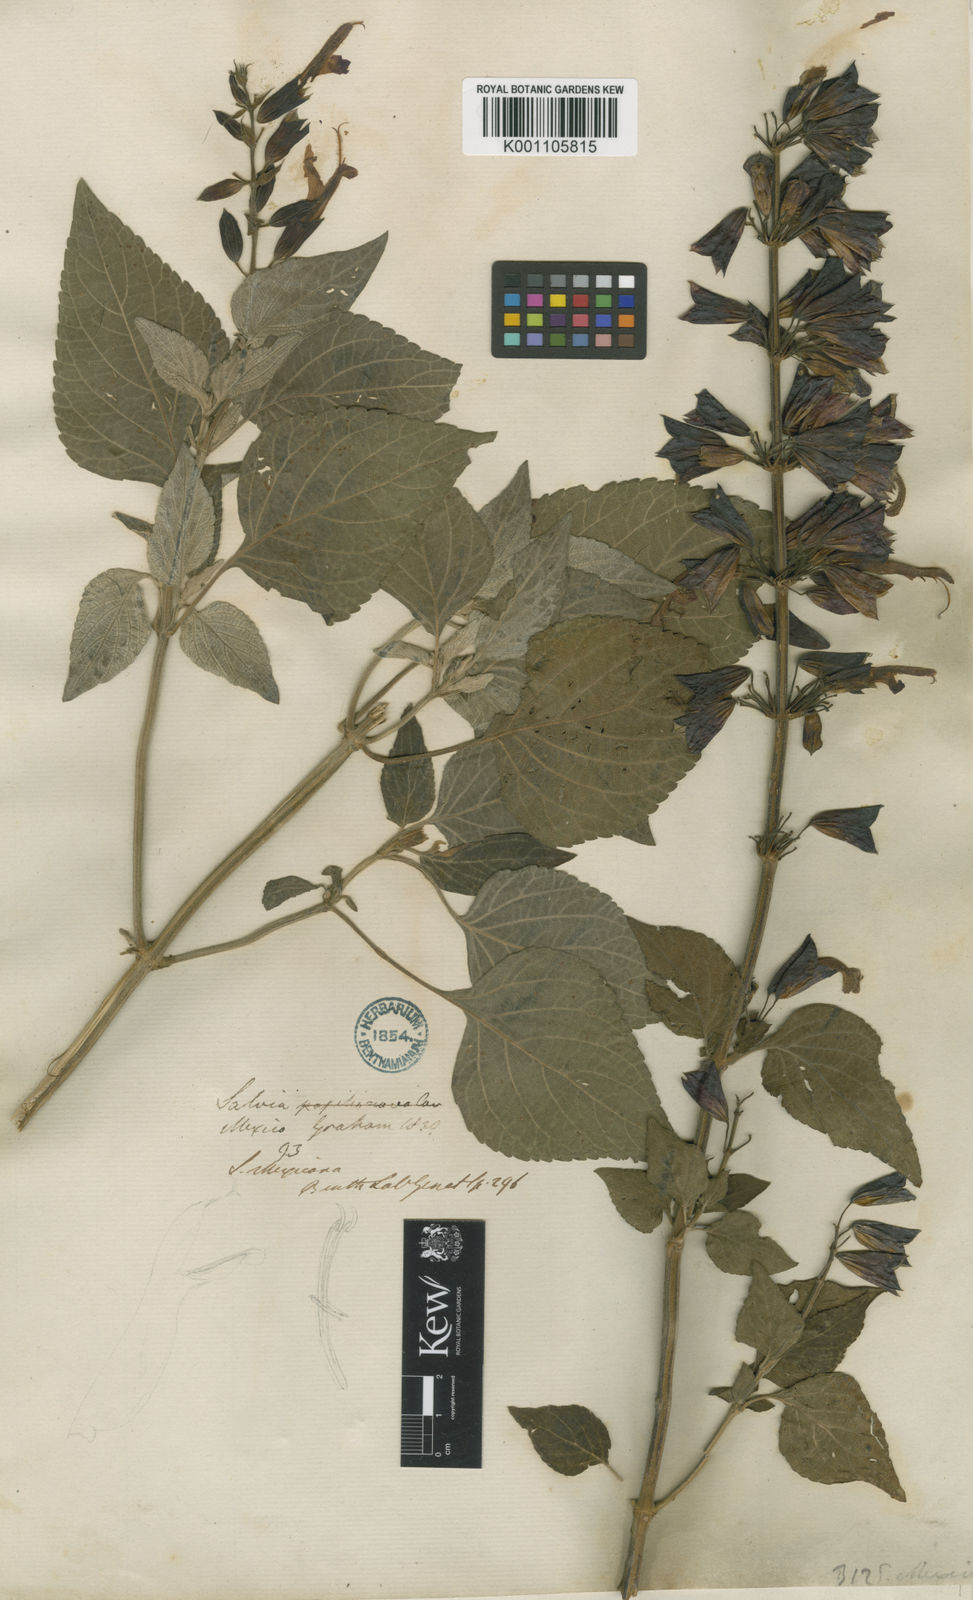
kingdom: Plantae
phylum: Tracheophyta
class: Magnoliopsida
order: Lamiales
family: Lamiaceae
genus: Salvia
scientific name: Salvia discolor
